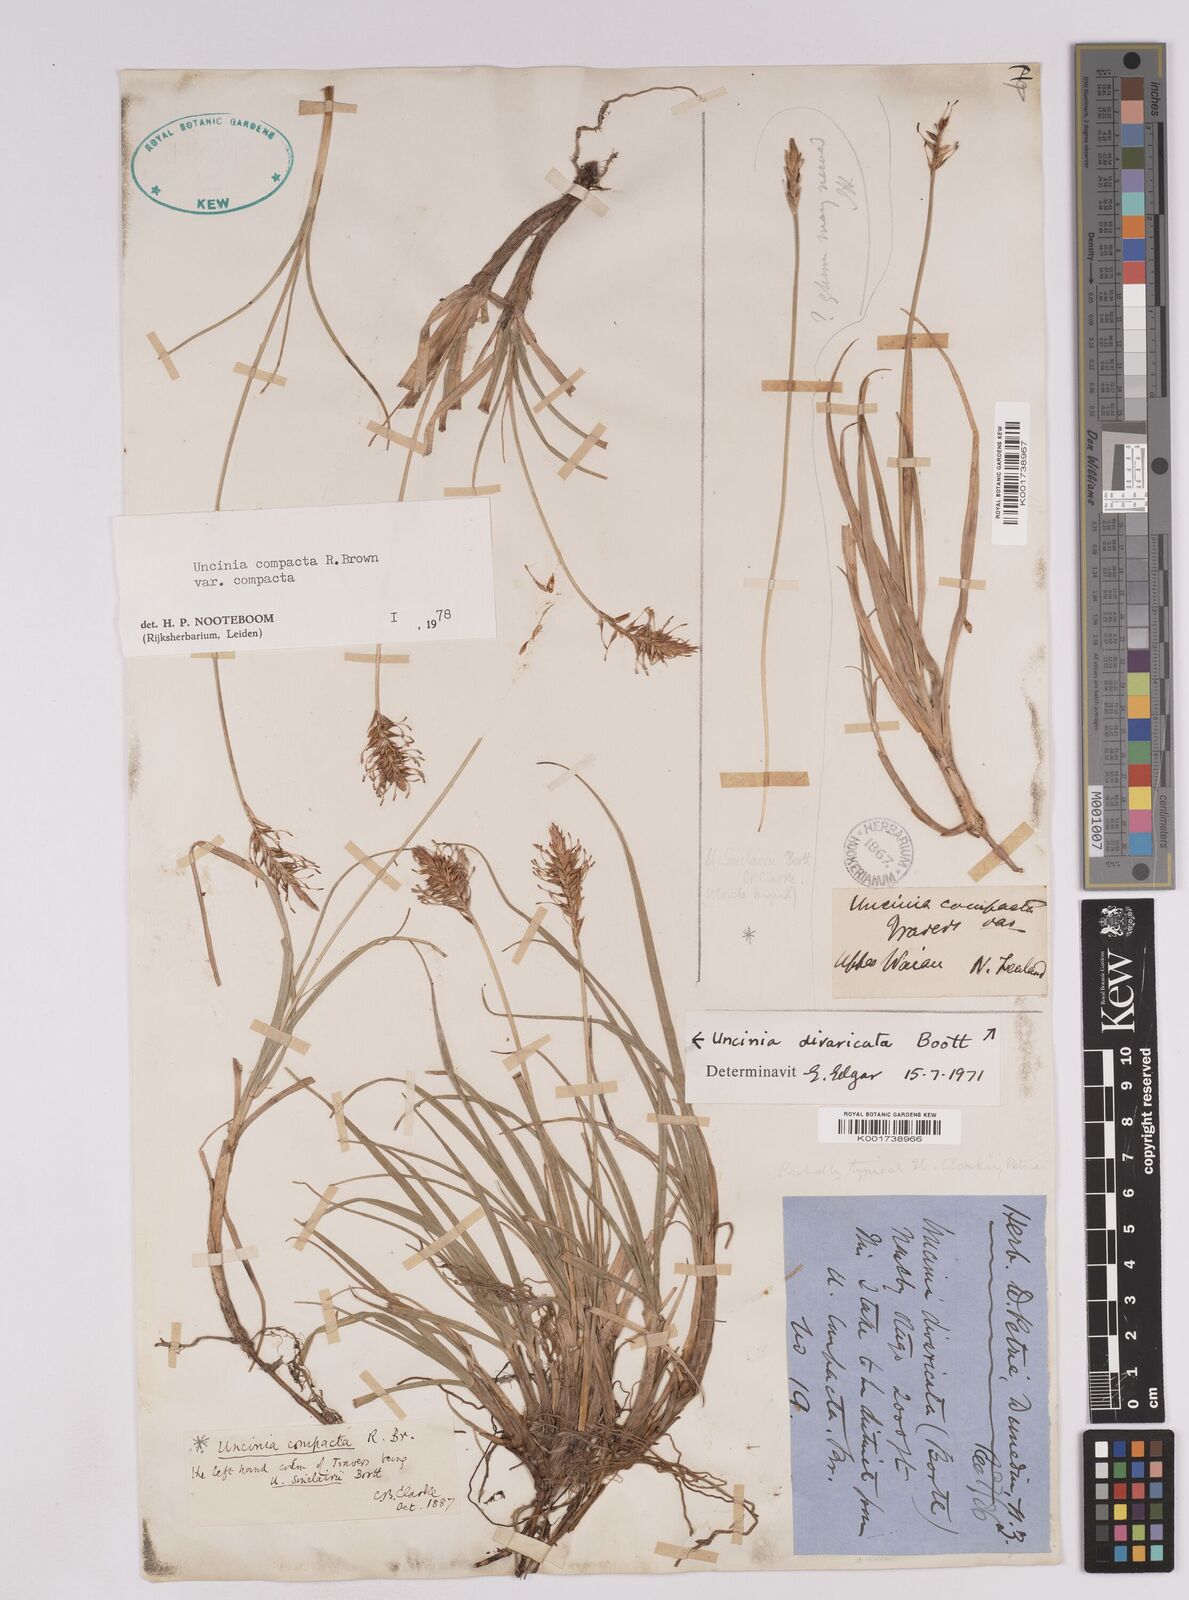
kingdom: Plantae
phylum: Tracheophyta
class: Liliopsida
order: Poales
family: Cyperaceae
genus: Carex
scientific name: Carex austrocompacta
